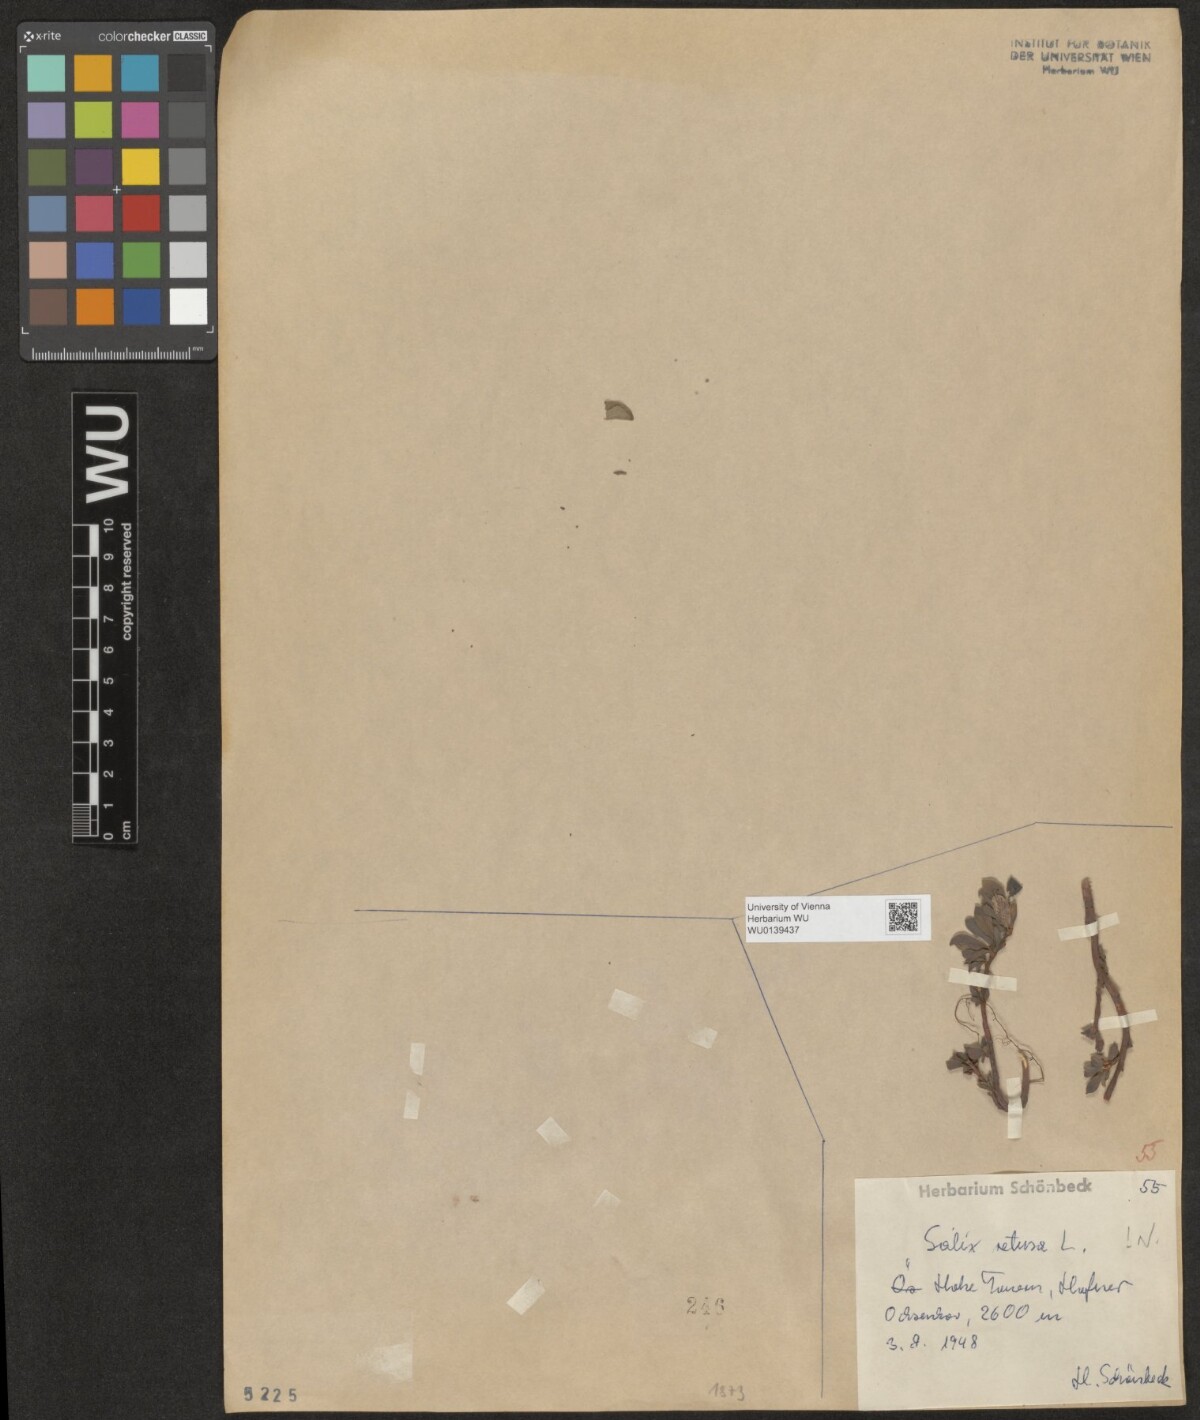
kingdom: Plantae
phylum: Tracheophyta
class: Magnoliopsida
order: Malpighiales
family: Salicaceae
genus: Salix
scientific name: Salix retusa
